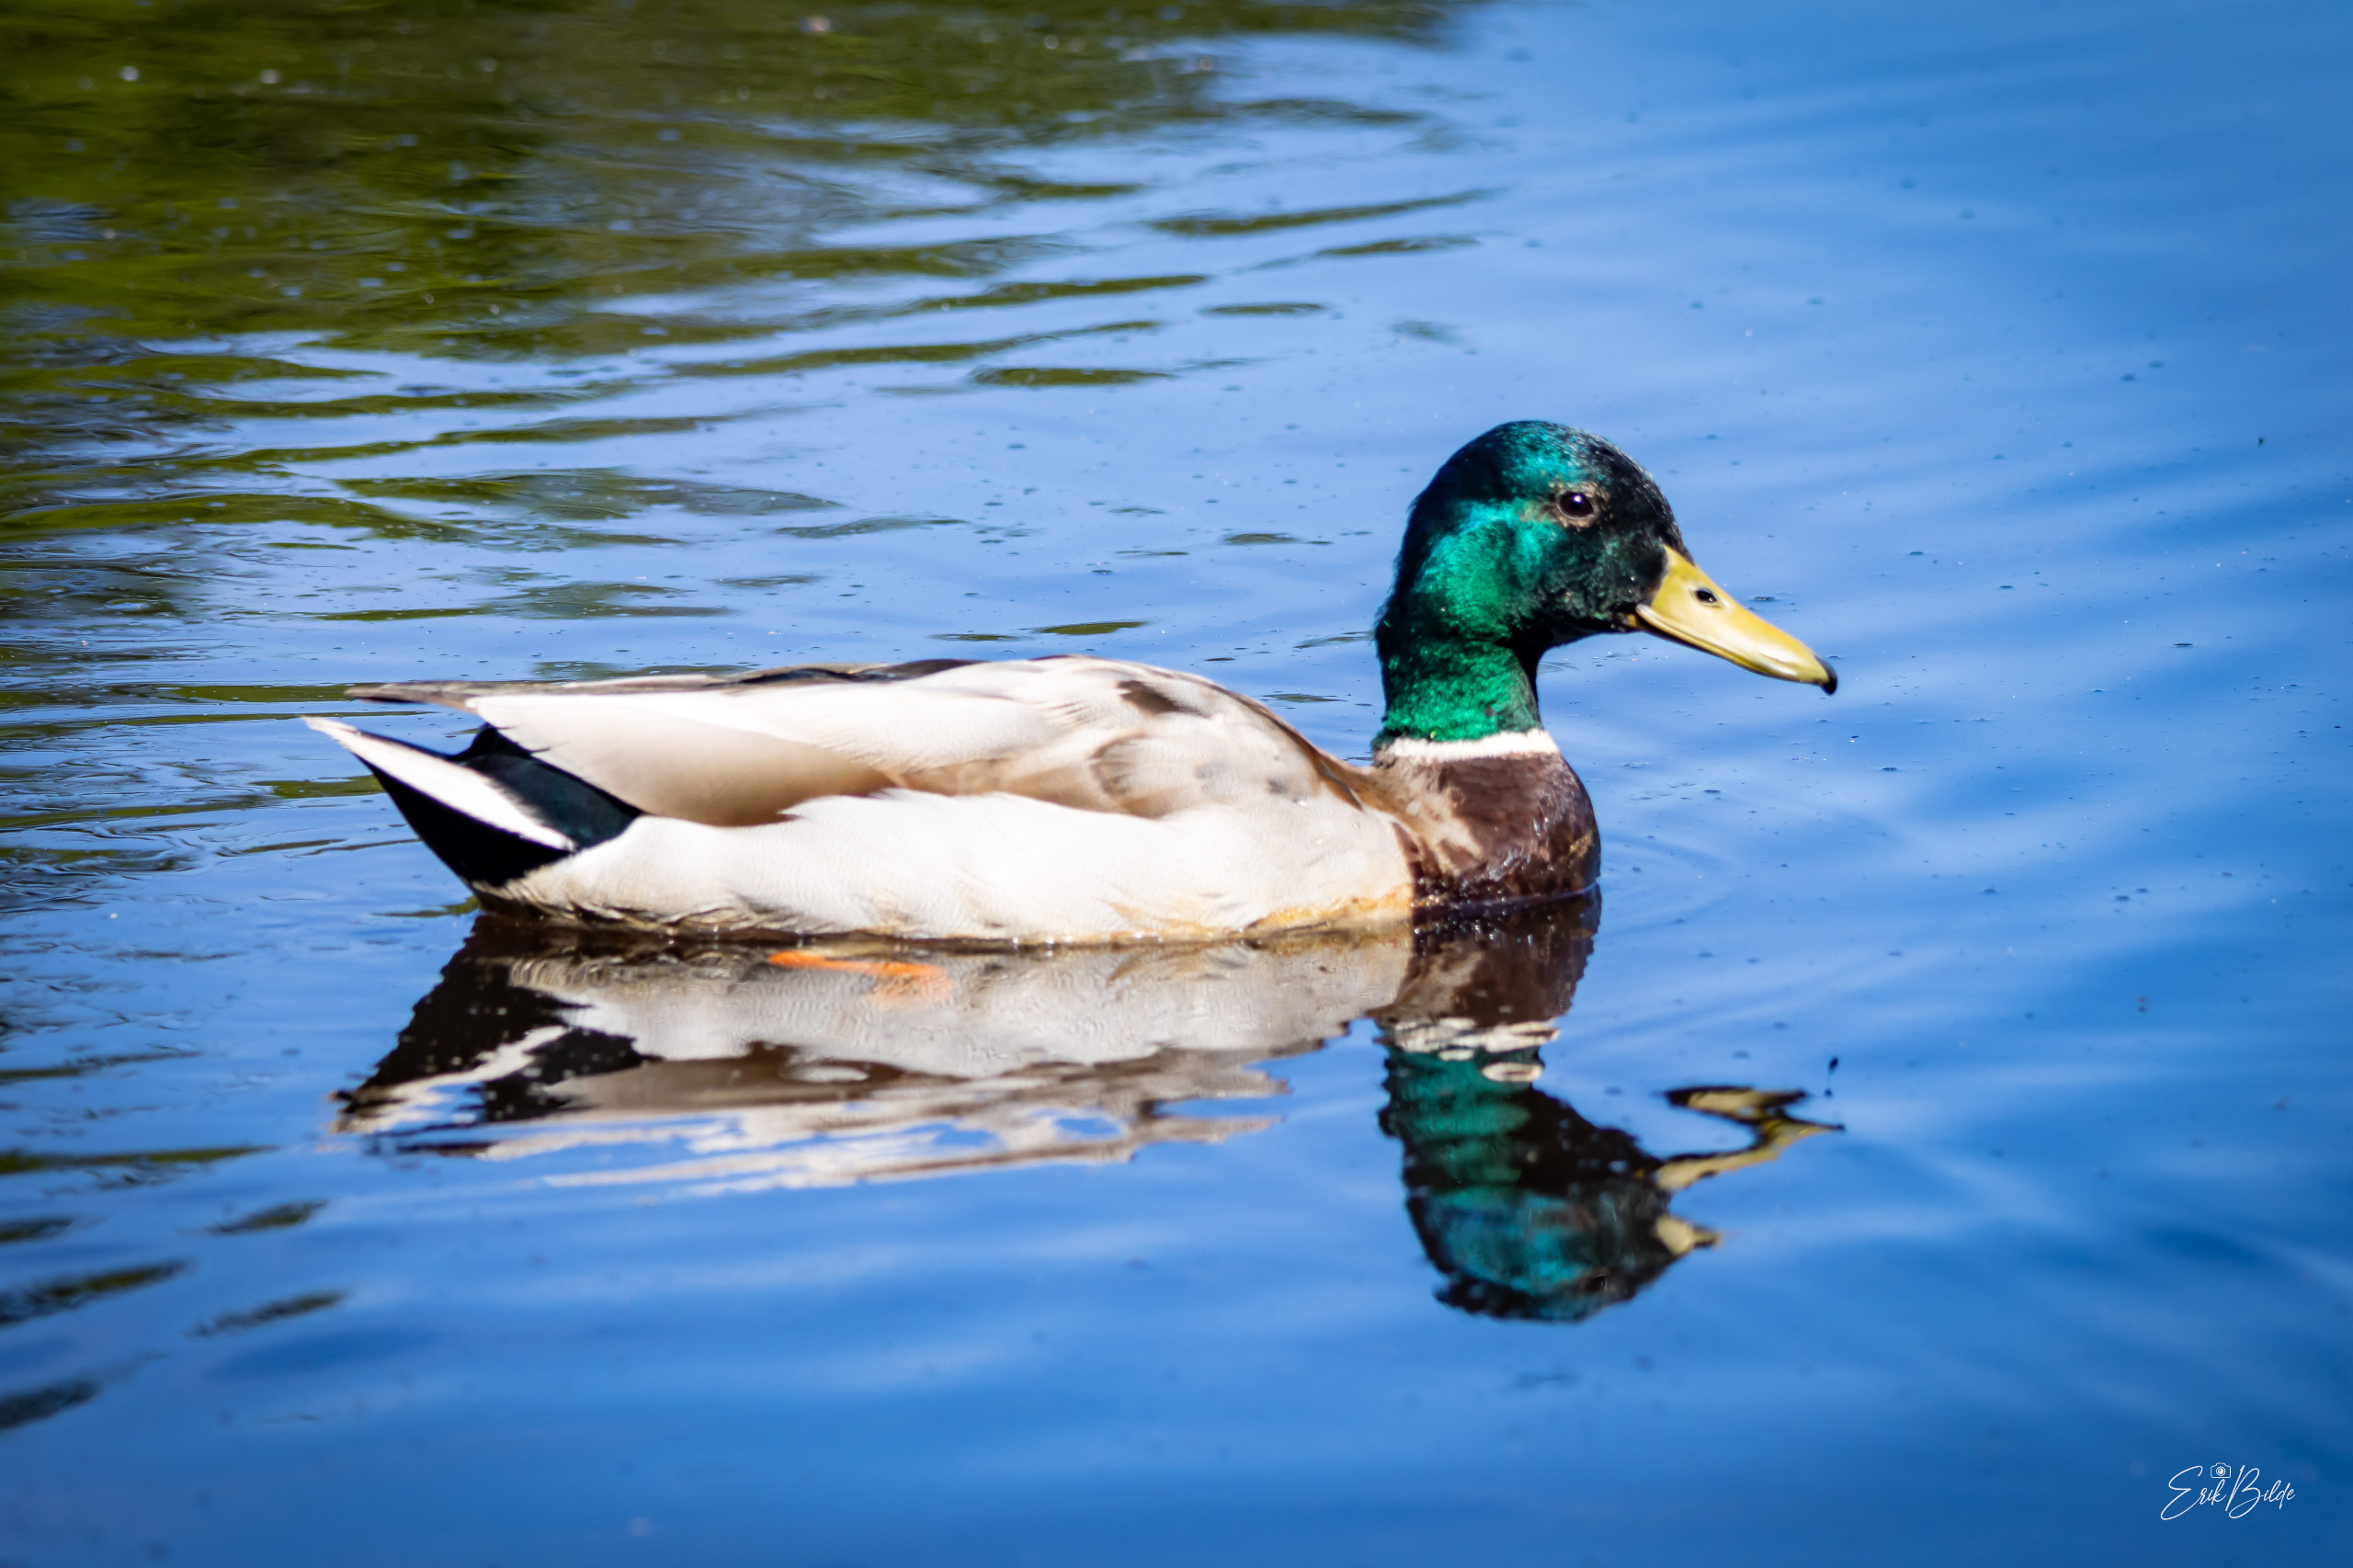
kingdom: Animalia
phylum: Chordata
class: Aves
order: Anseriformes
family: Anatidae
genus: Anas
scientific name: Anas platyrhynchos
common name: Gråand
